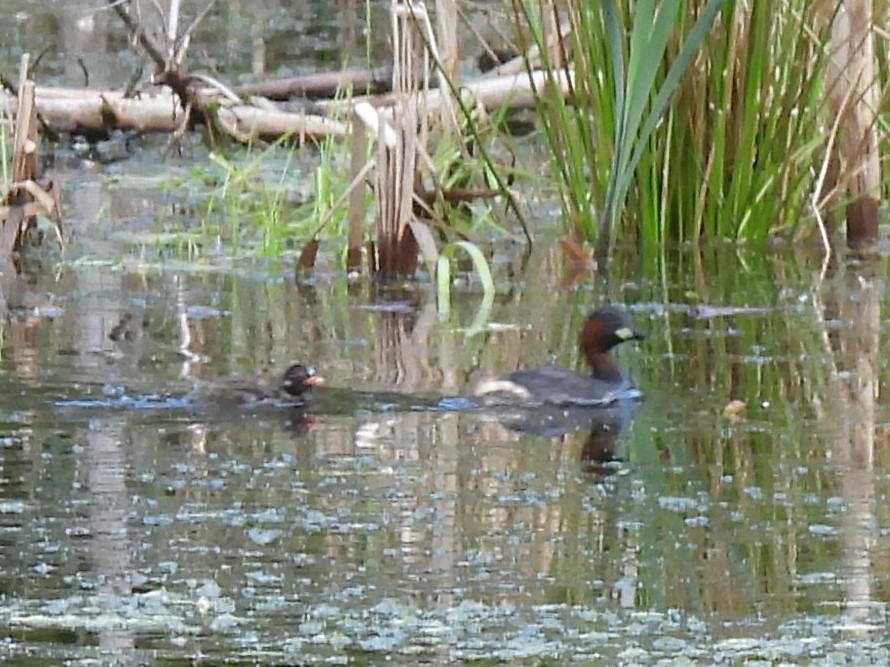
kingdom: Animalia
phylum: Chordata
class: Aves
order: Podicipediformes
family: Podicipedidae
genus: Tachybaptus
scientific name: Tachybaptus ruficollis
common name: Lille lappedykker
